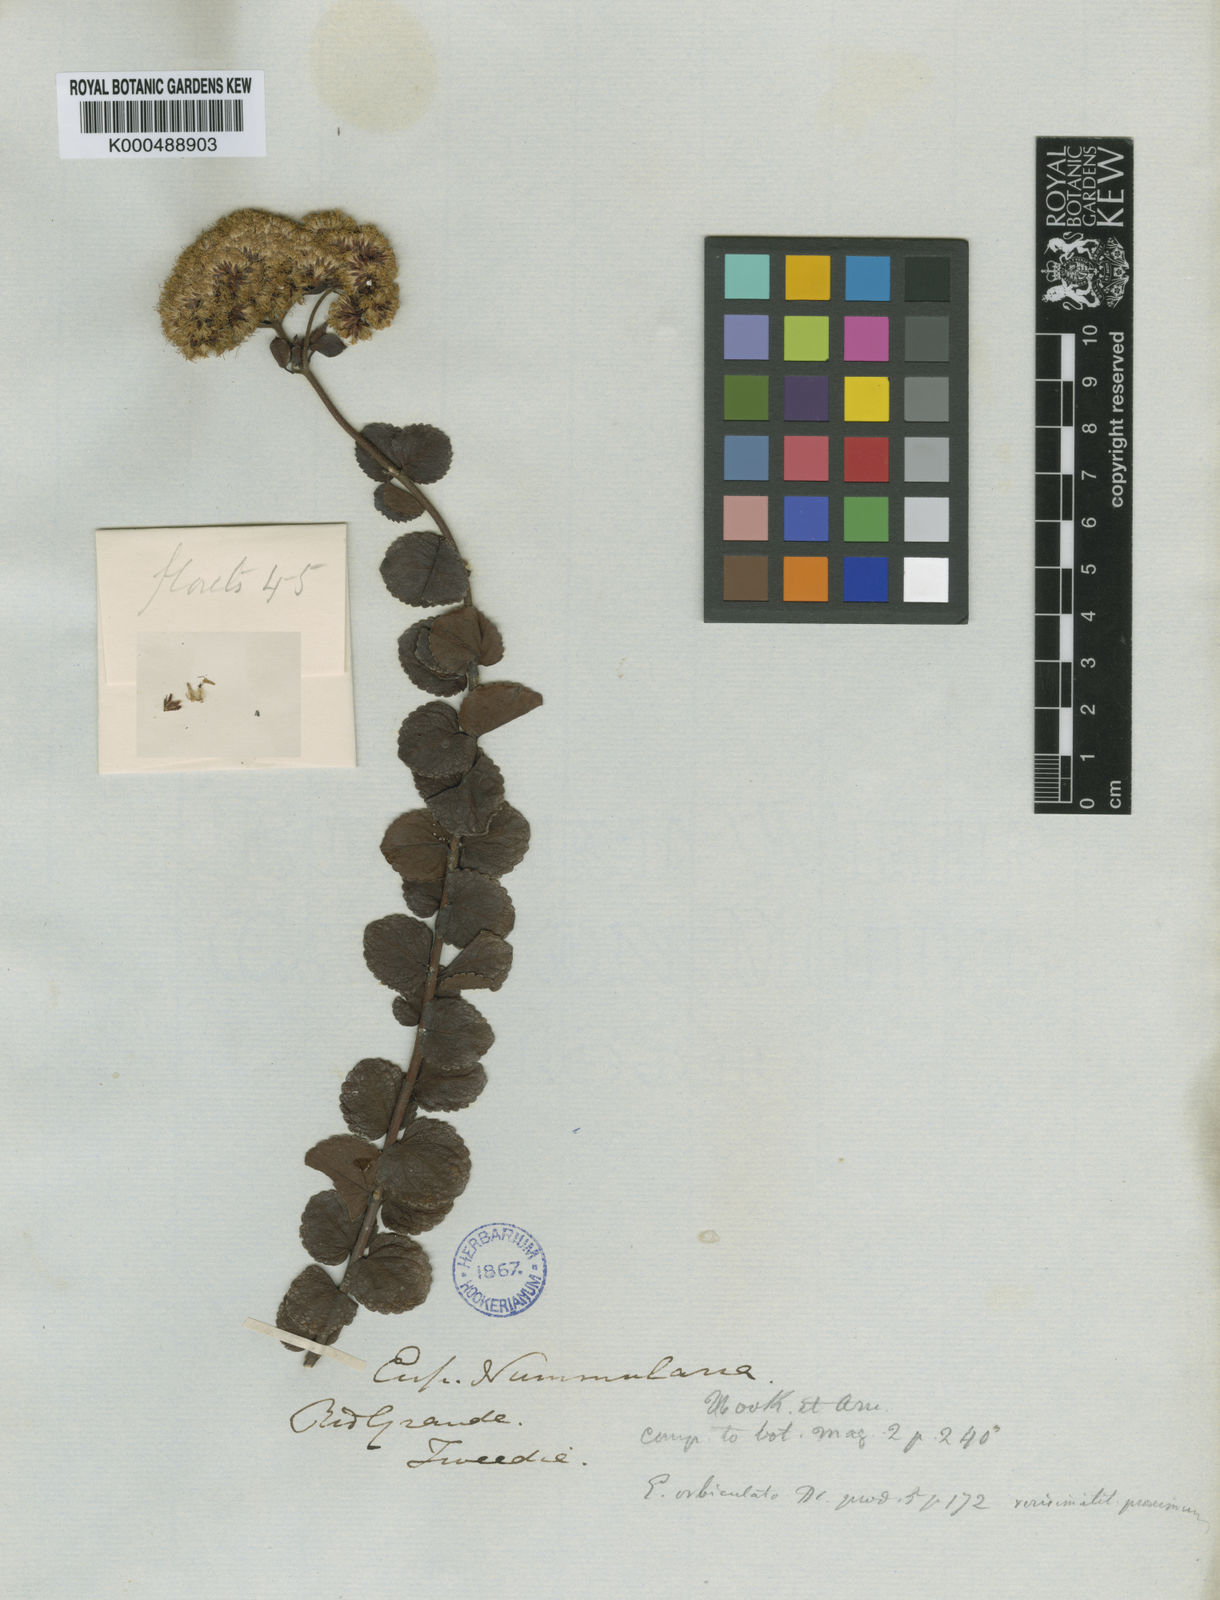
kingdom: Plantae
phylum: Tracheophyta
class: Magnoliopsida
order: Asterales
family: Asteraceae
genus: Grazielia
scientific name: Grazielia nummularia
